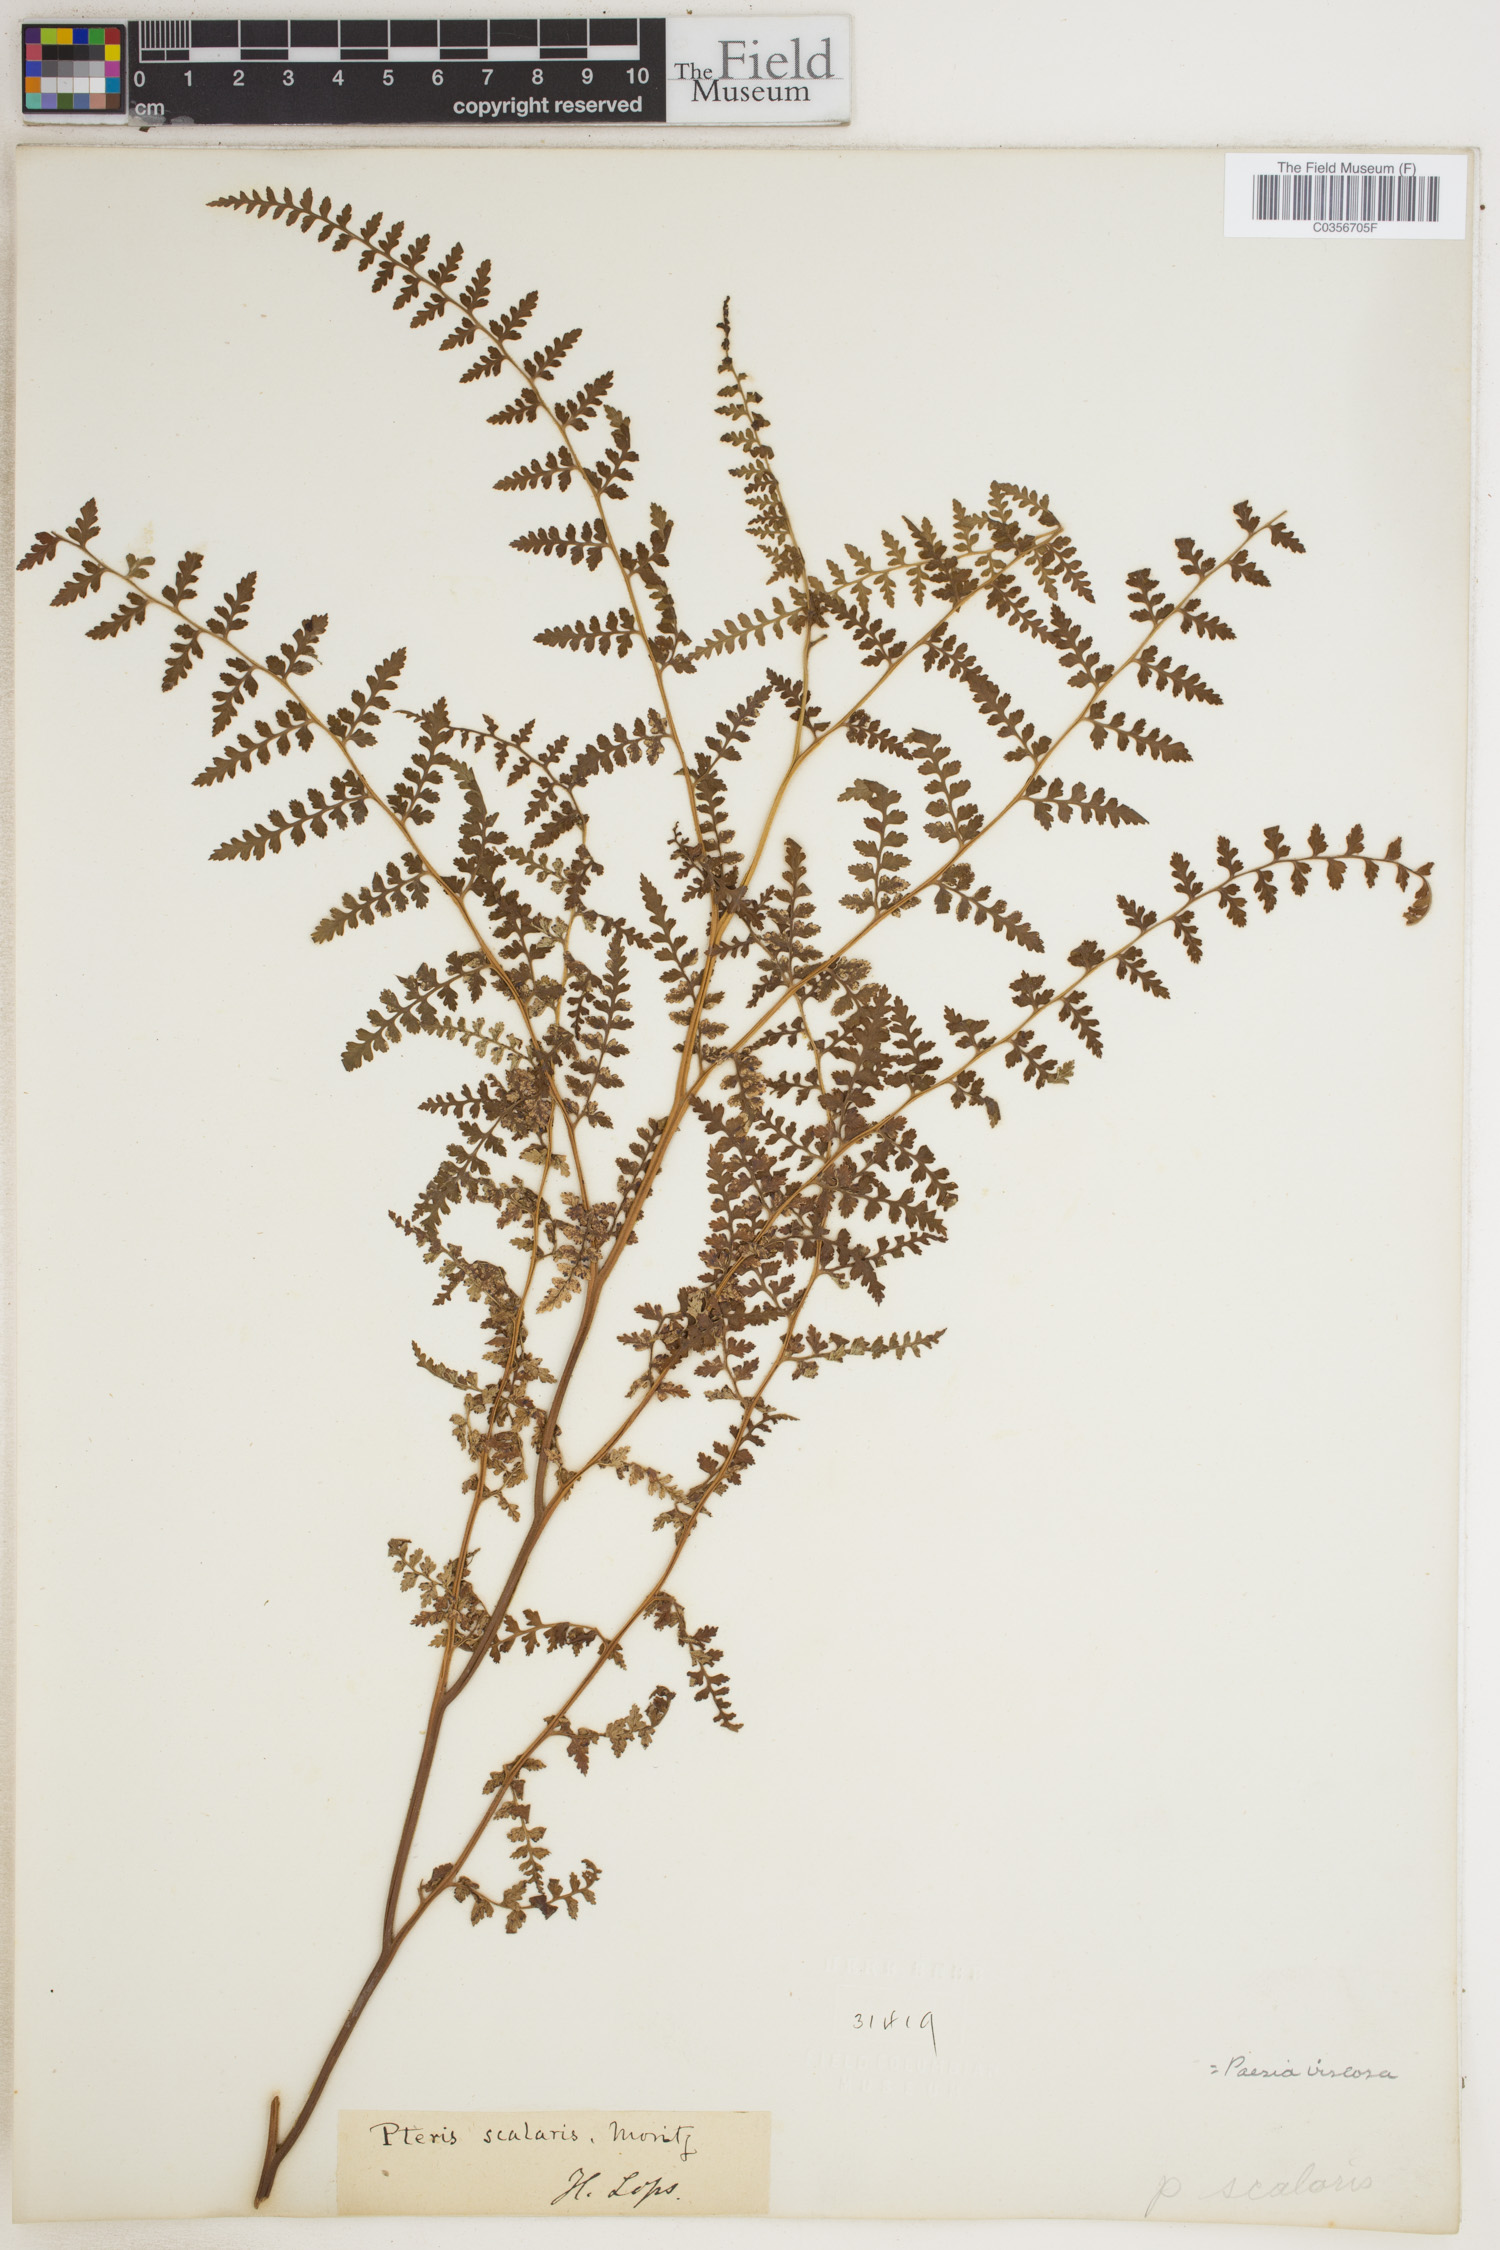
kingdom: Plantae
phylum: Tracheophyta
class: Polypodiopsida
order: Polypodiales
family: Dennstaedtiaceae
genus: Paesia
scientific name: Paesia glandulosa
